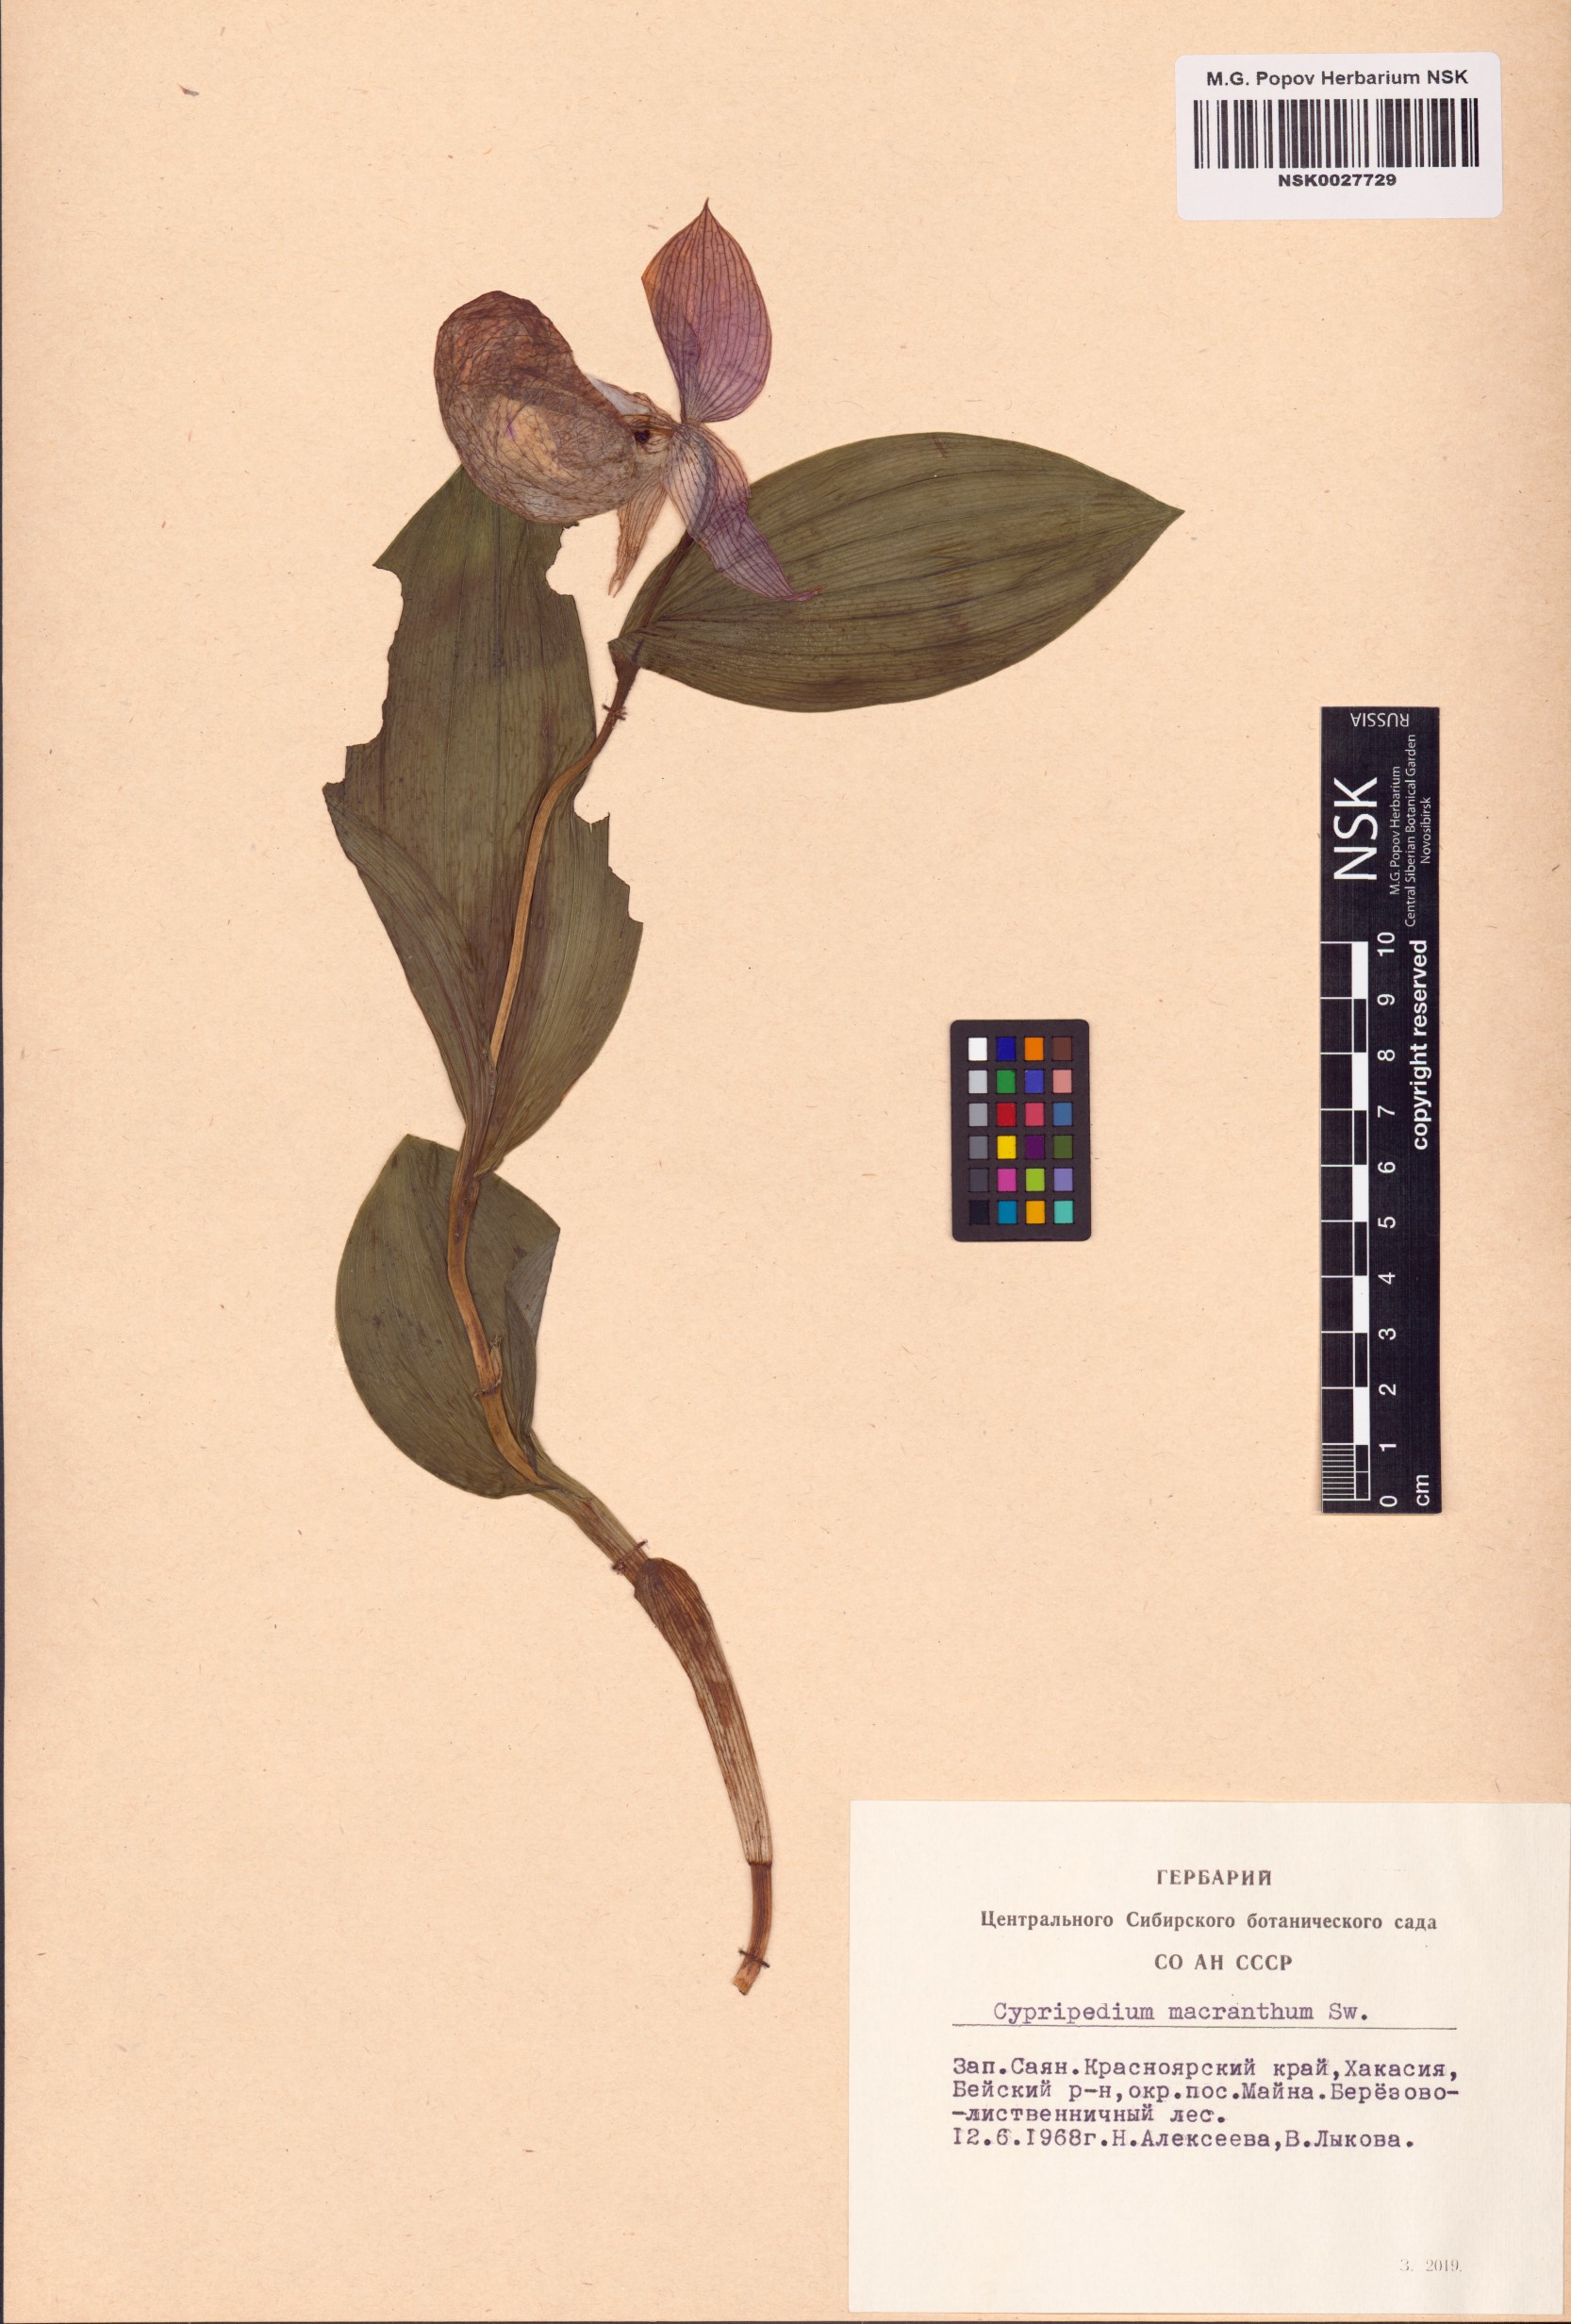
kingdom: Plantae
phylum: Tracheophyta
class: Liliopsida
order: Asparagales
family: Orchidaceae
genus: Cypripedium
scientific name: Cypripedium macranthos
